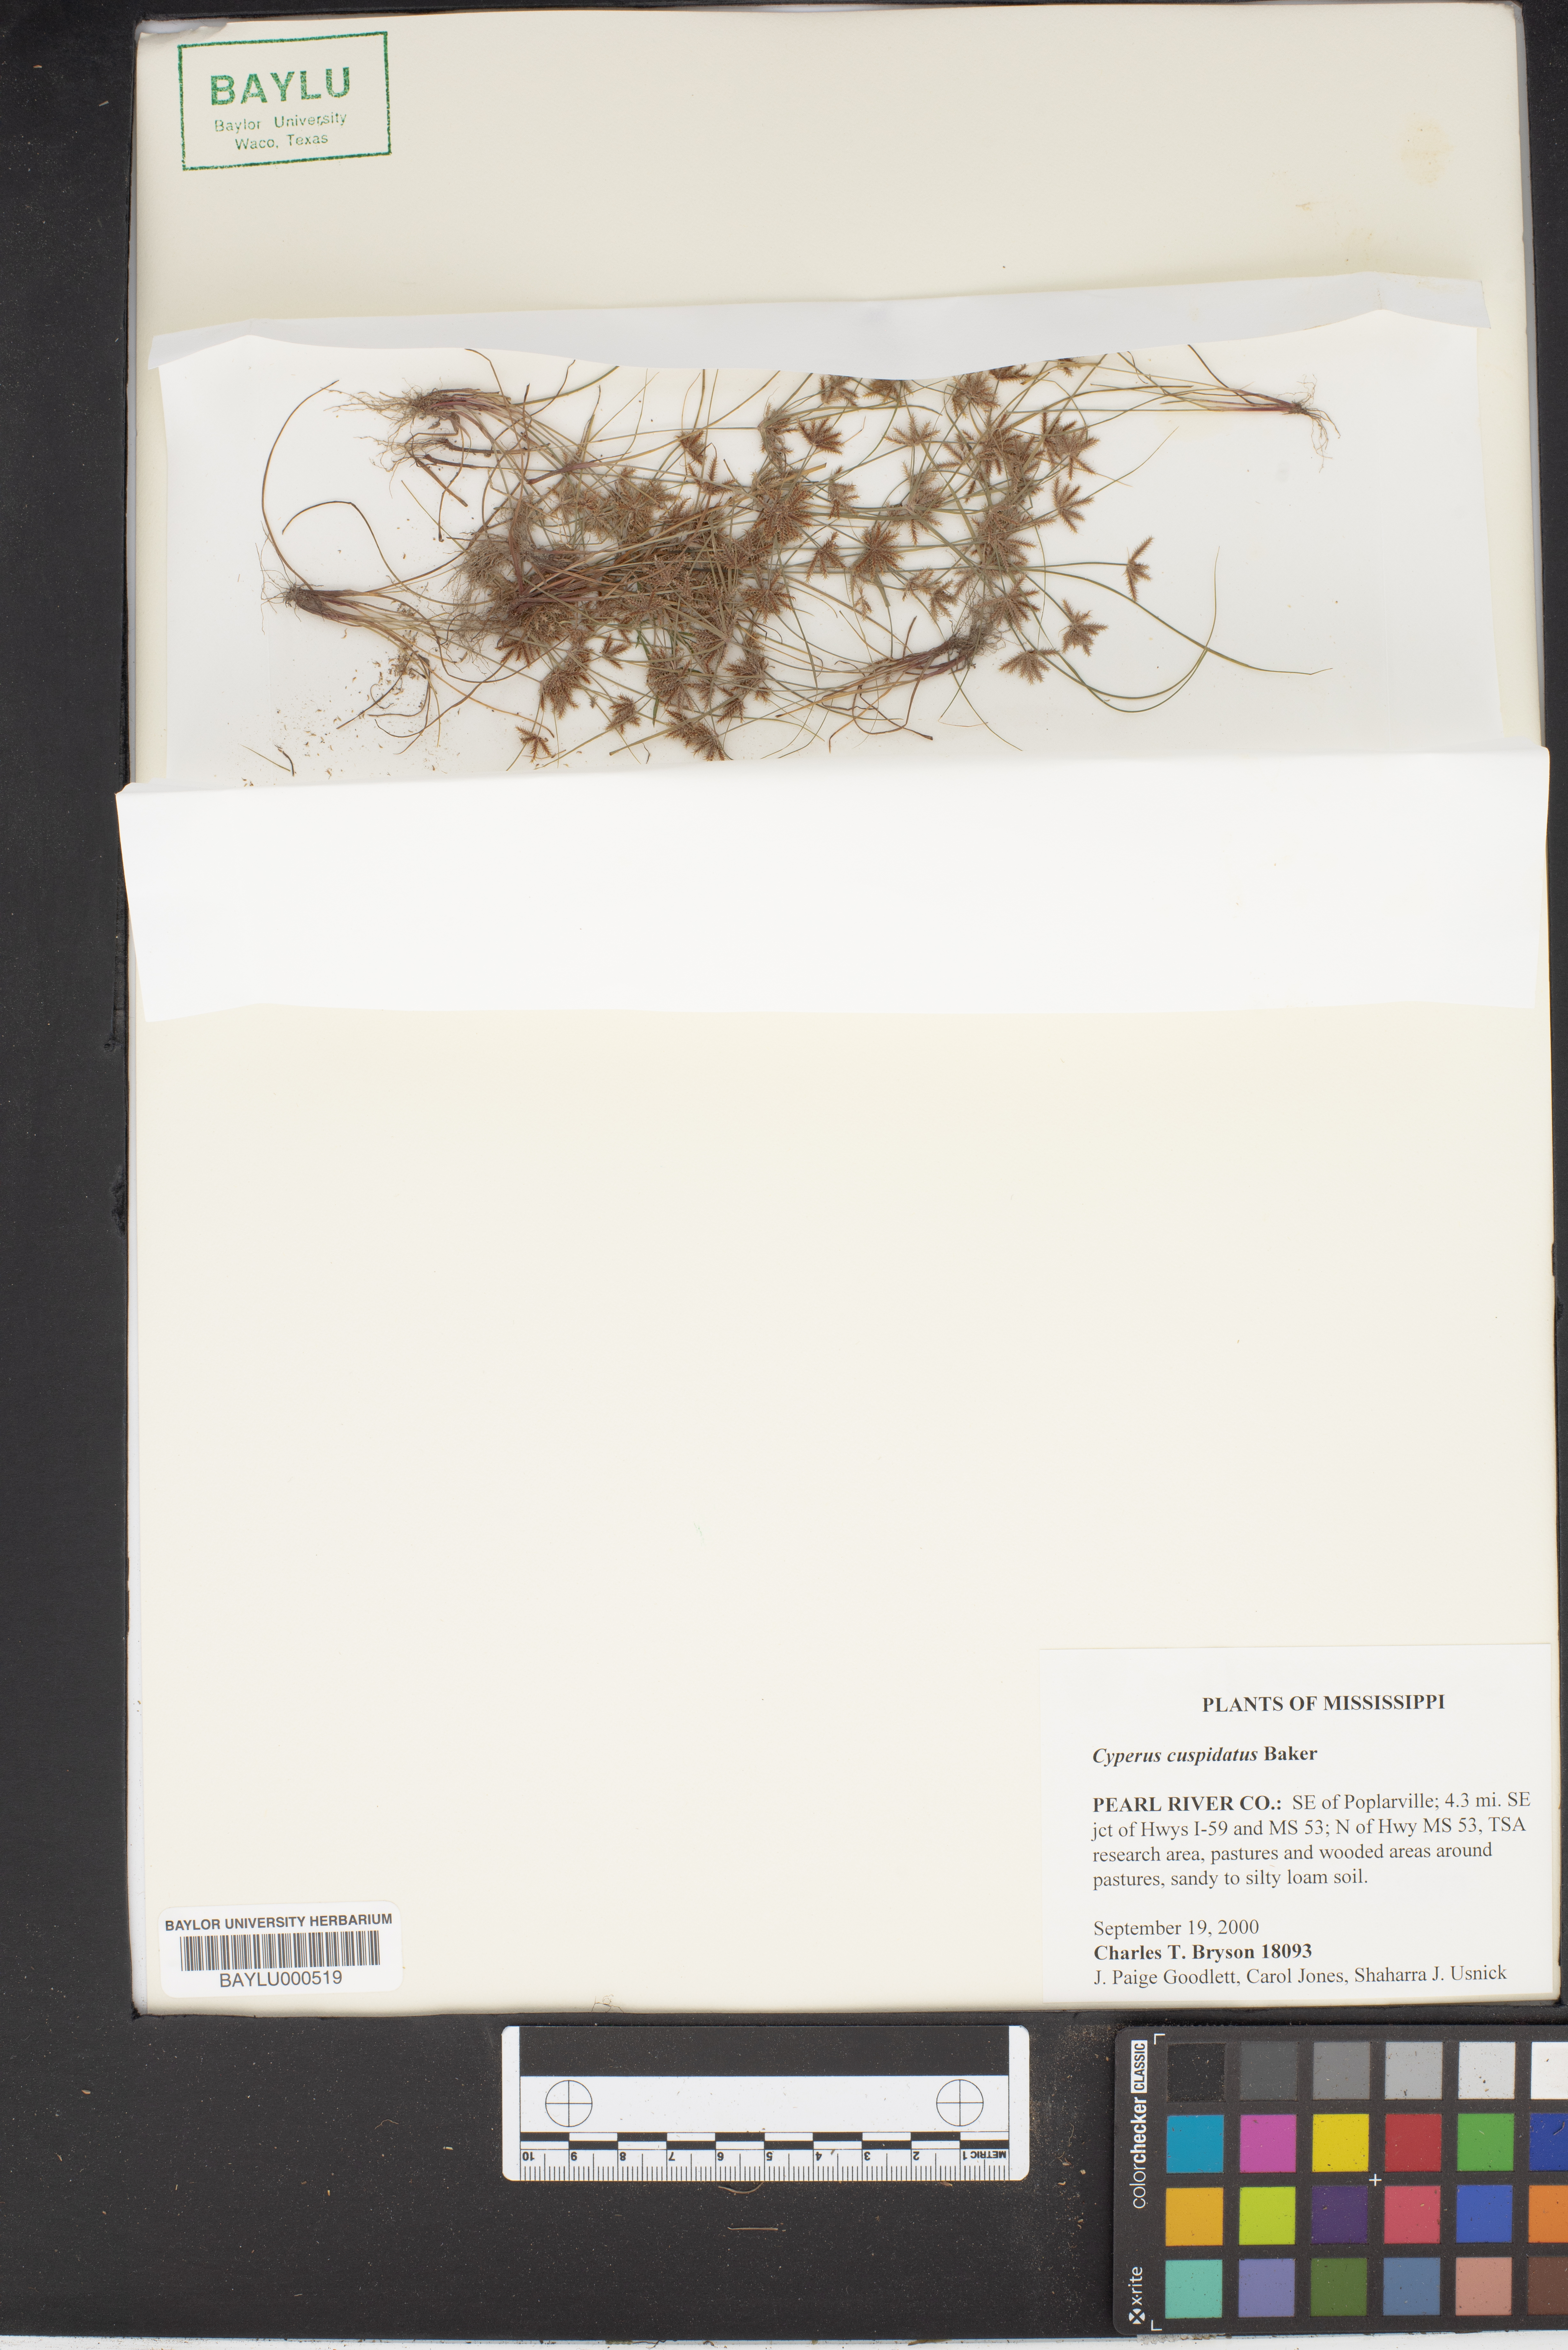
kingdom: Plantae
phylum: Tracheophyta
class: Liliopsida
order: Poales
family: Cyperaceae
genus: Cyperus
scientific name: Cyperus cuspidatus
